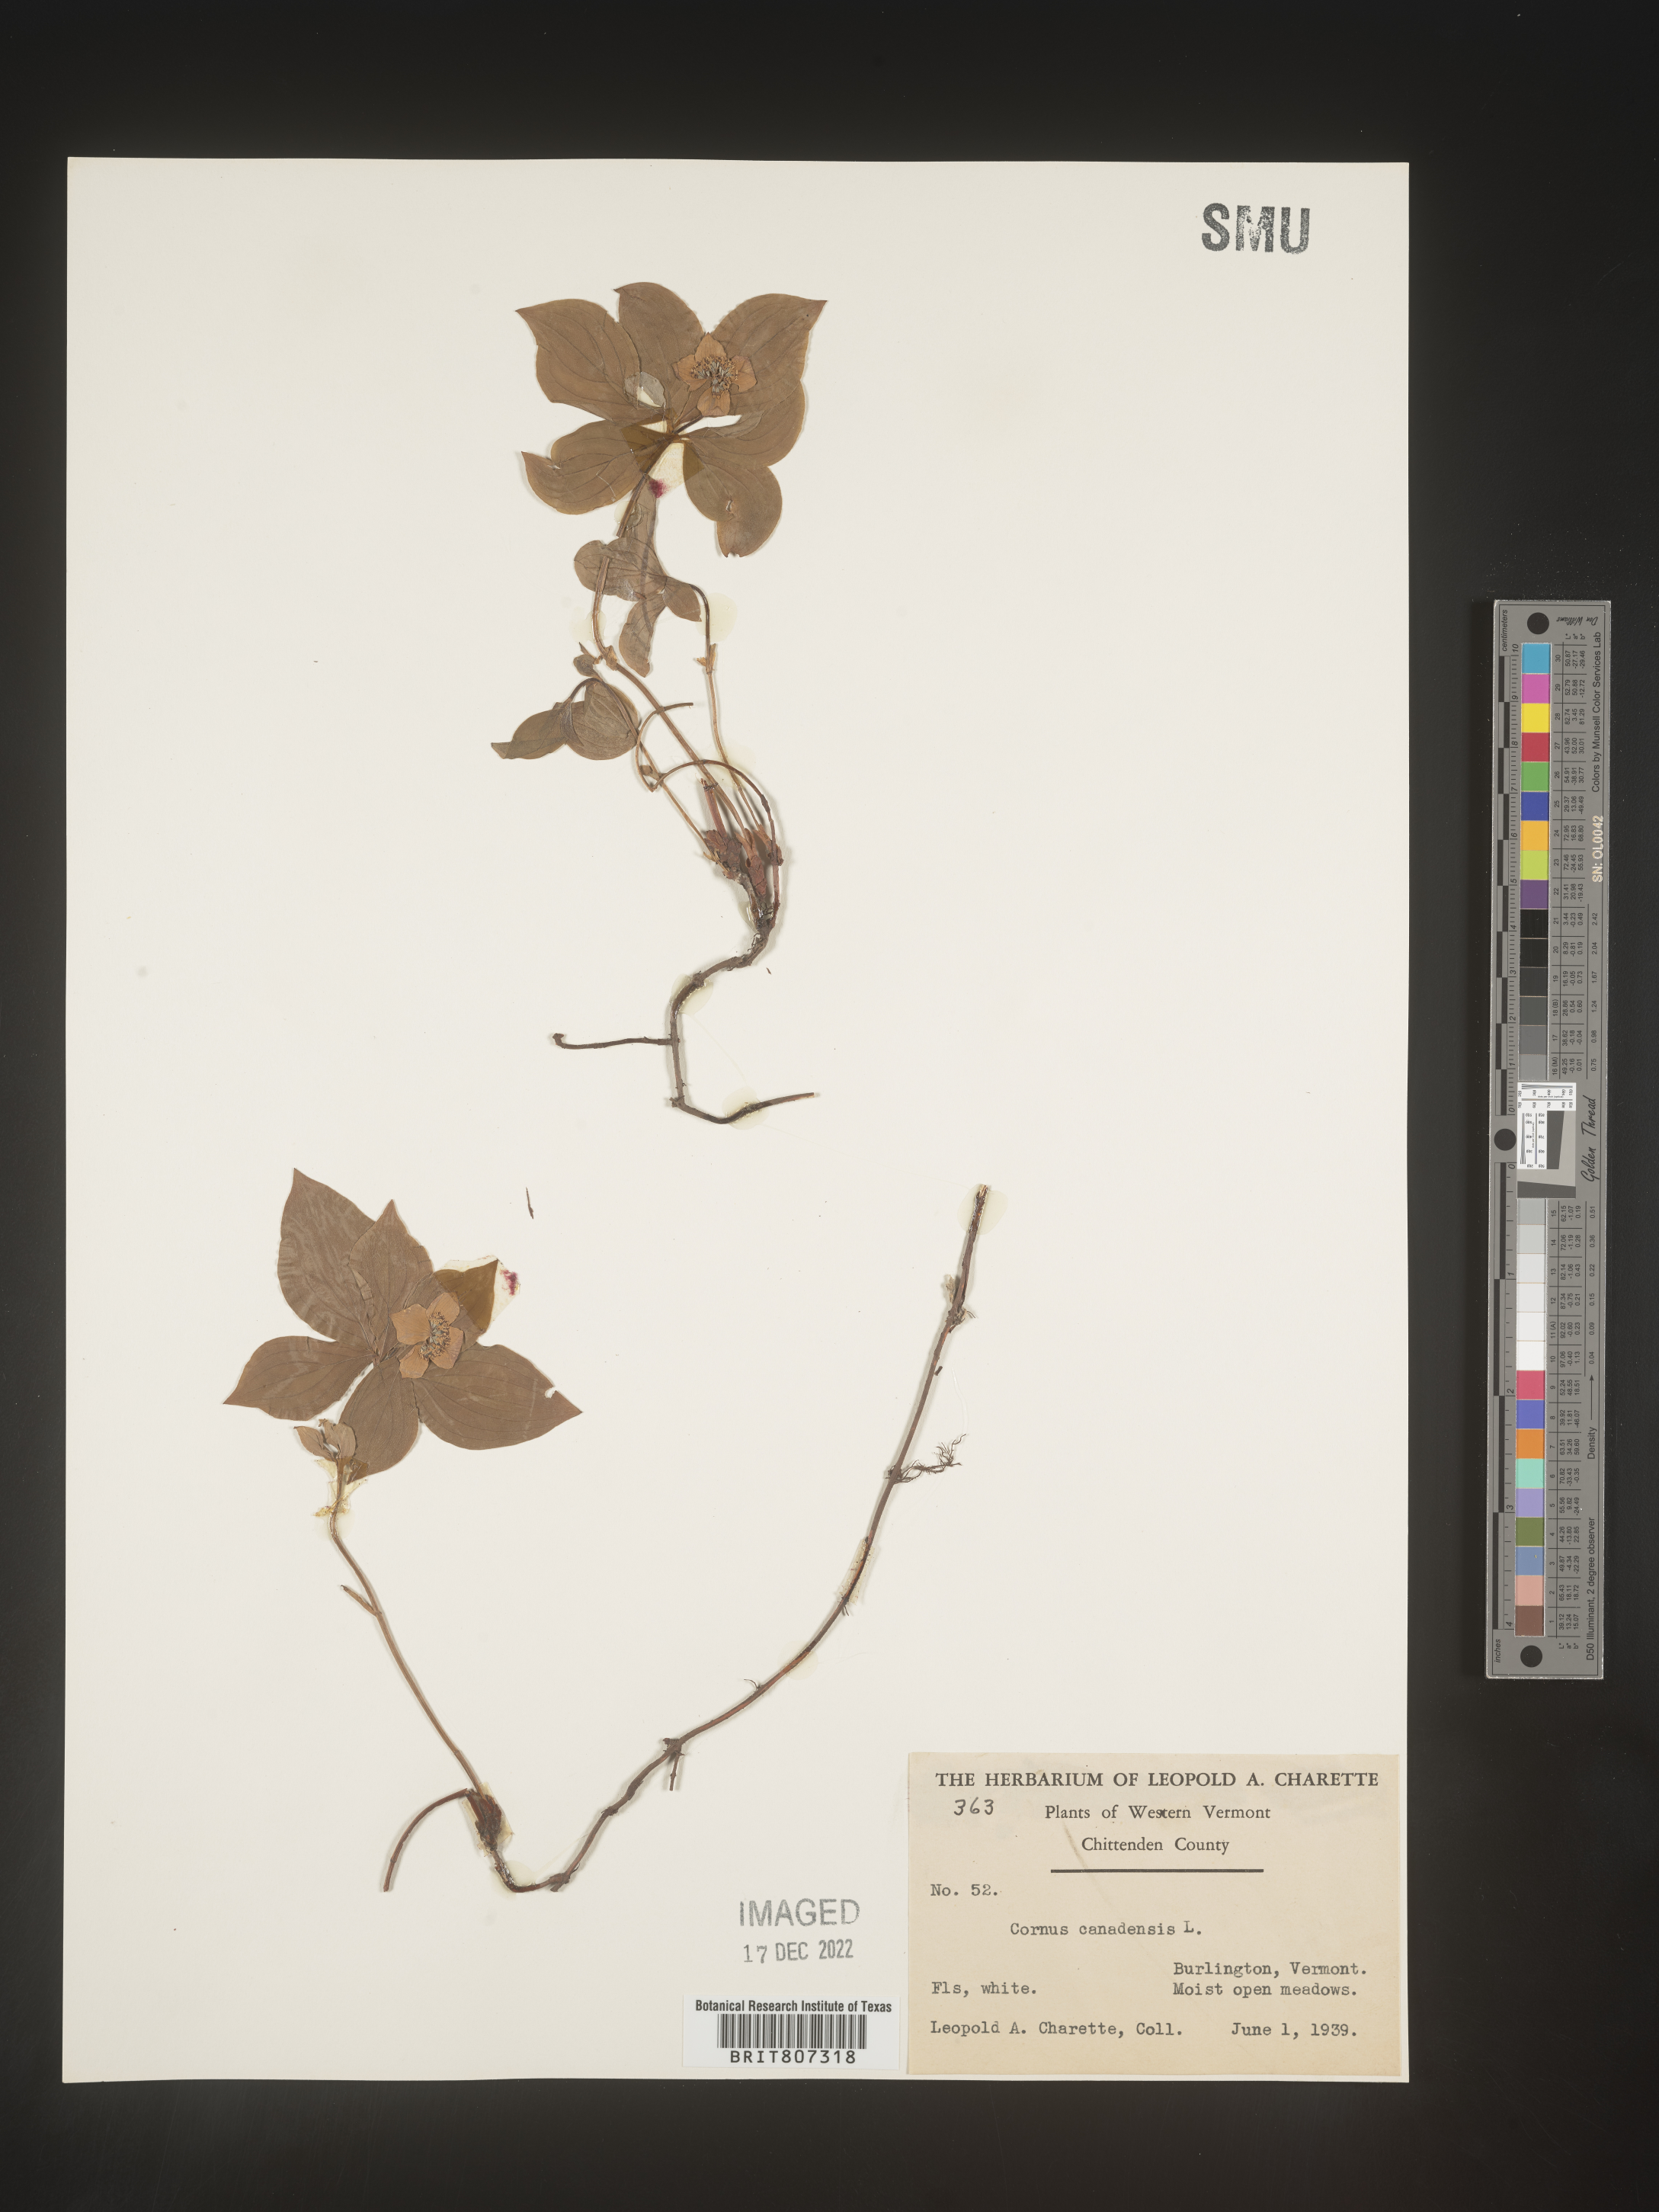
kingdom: Plantae
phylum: Tracheophyta
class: Magnoliopsida
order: Cornales
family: Cornaceae
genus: Cornus
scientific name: Cornus canadensis
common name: Creeping dogwood
